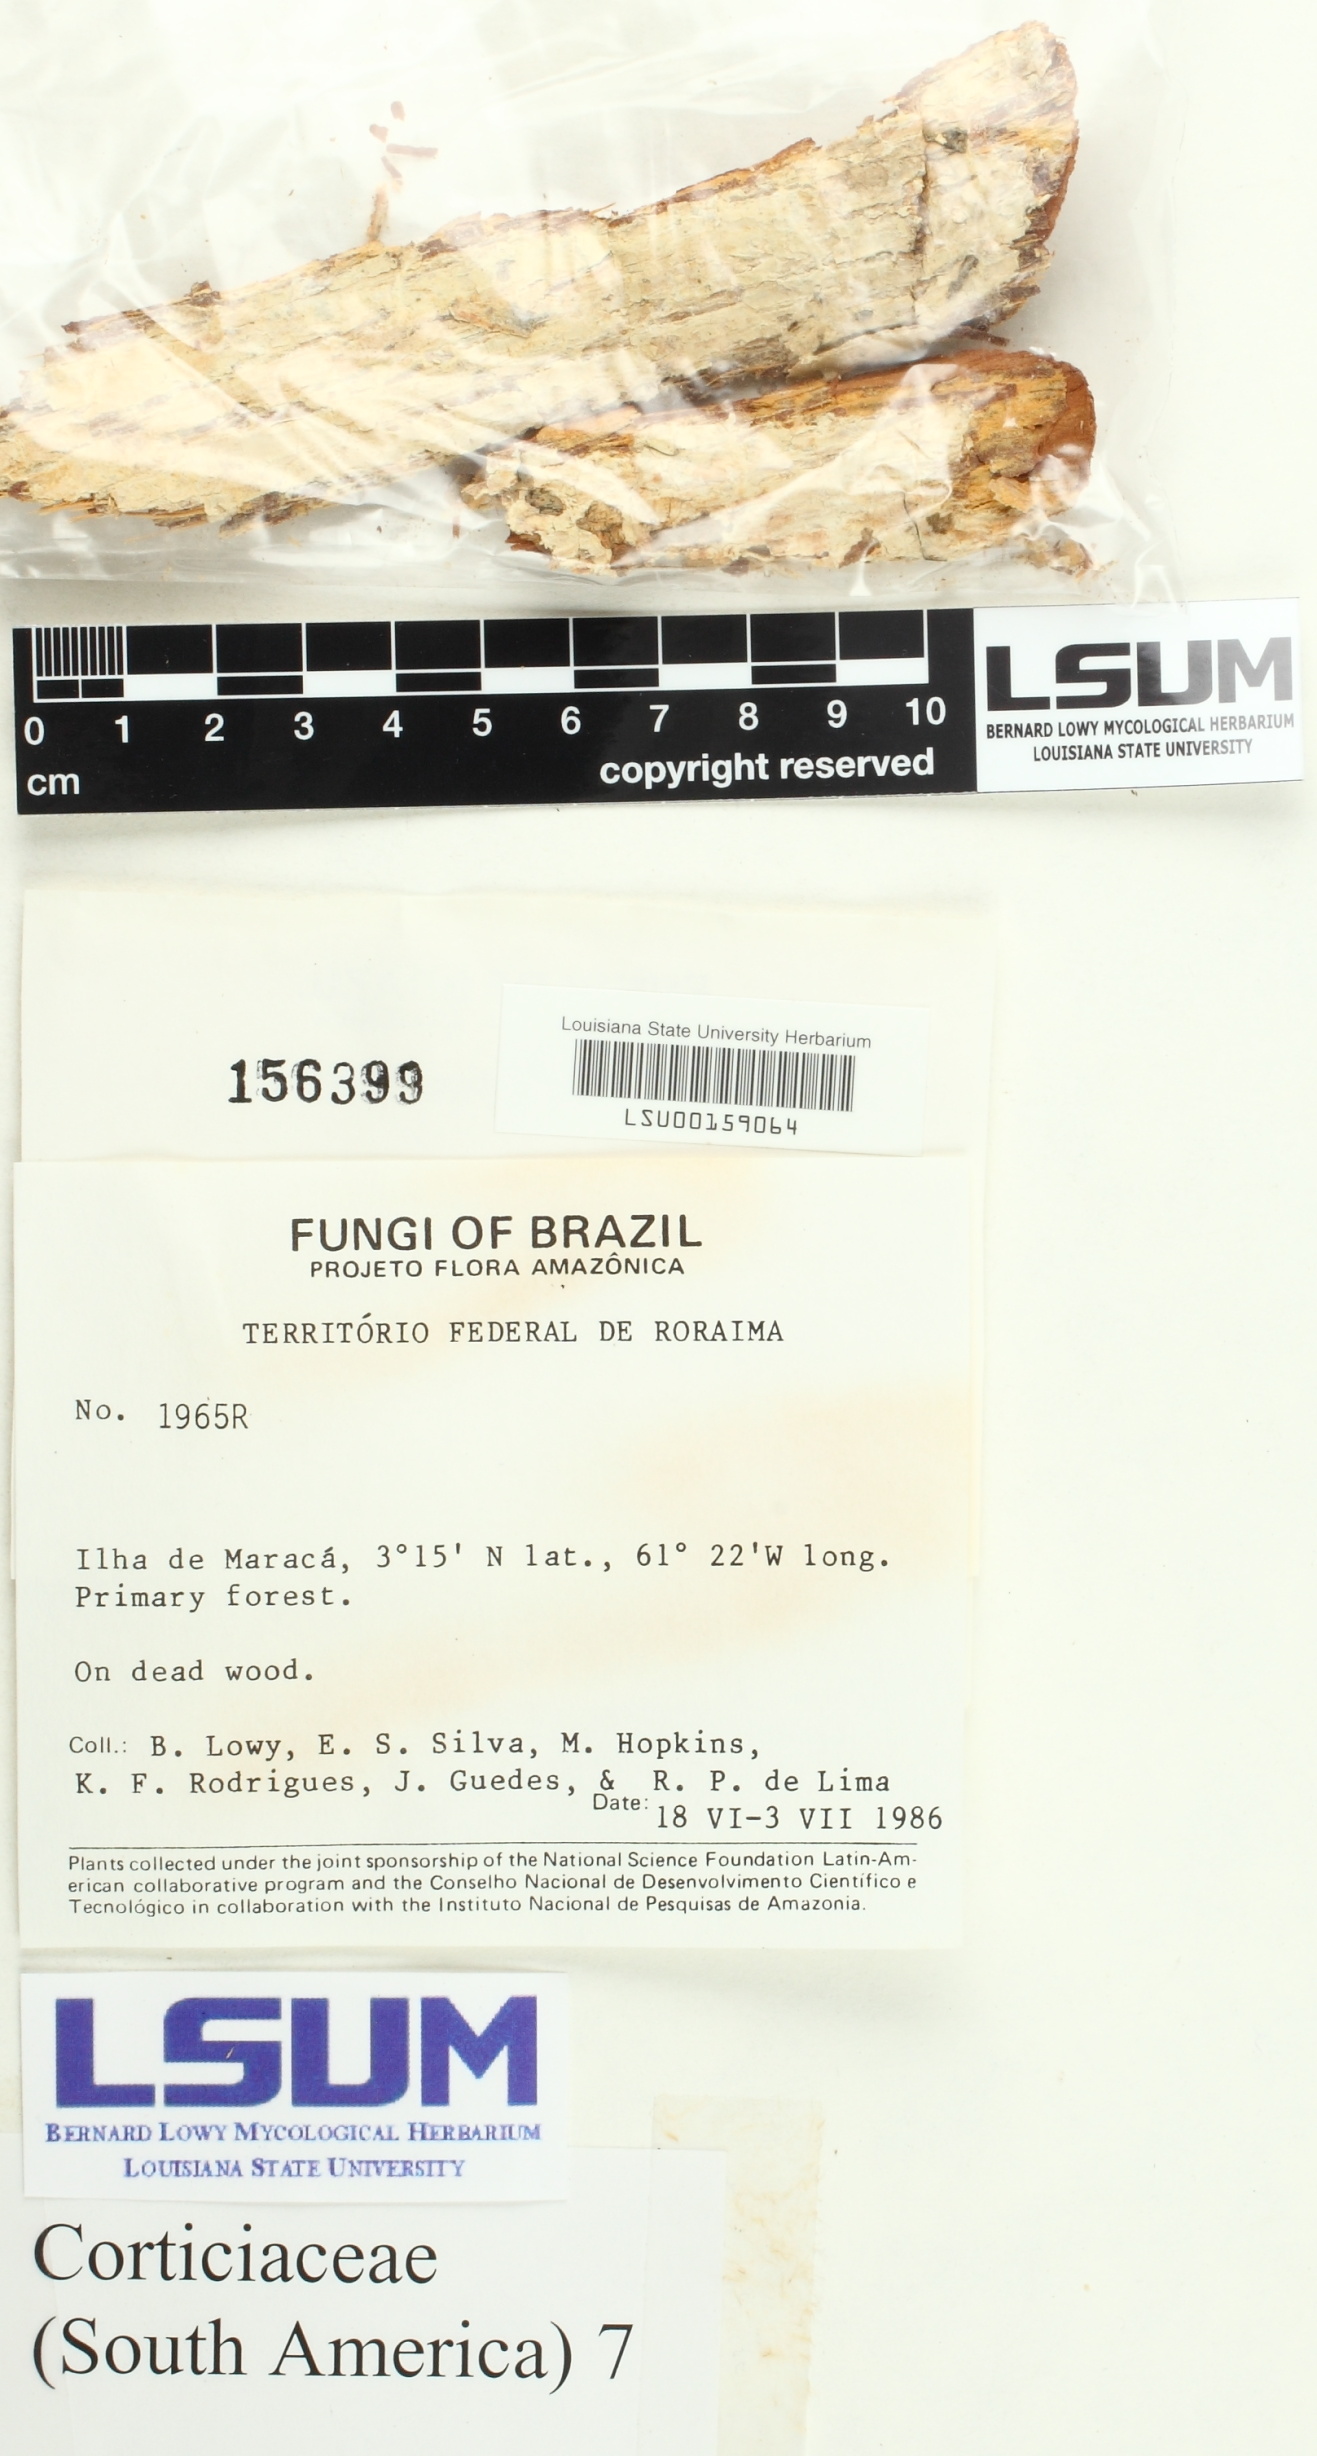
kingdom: Fungi
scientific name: Fungi
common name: Fungi
